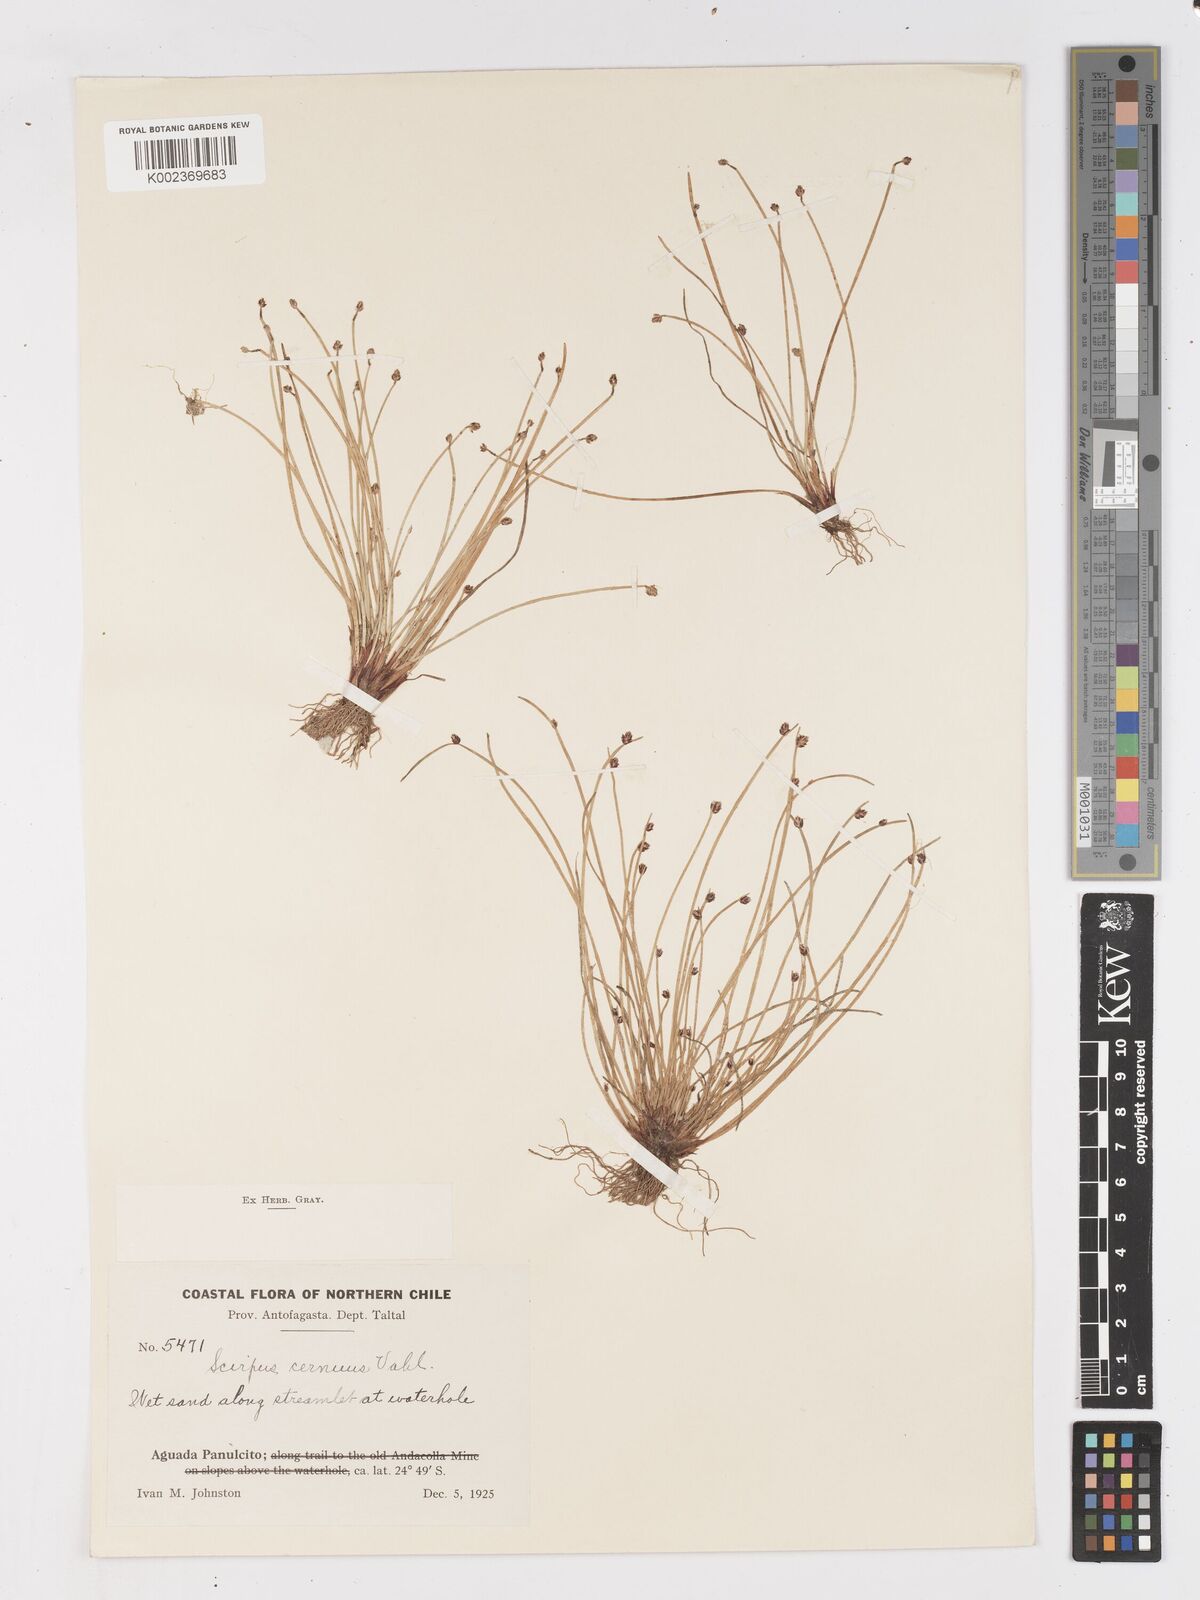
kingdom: Plantae
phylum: Tracheophyta
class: Liliopsida
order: Poales
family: Cyperaceae
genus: Isolepis
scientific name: Isolepis cernua
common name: Slender club-rush
